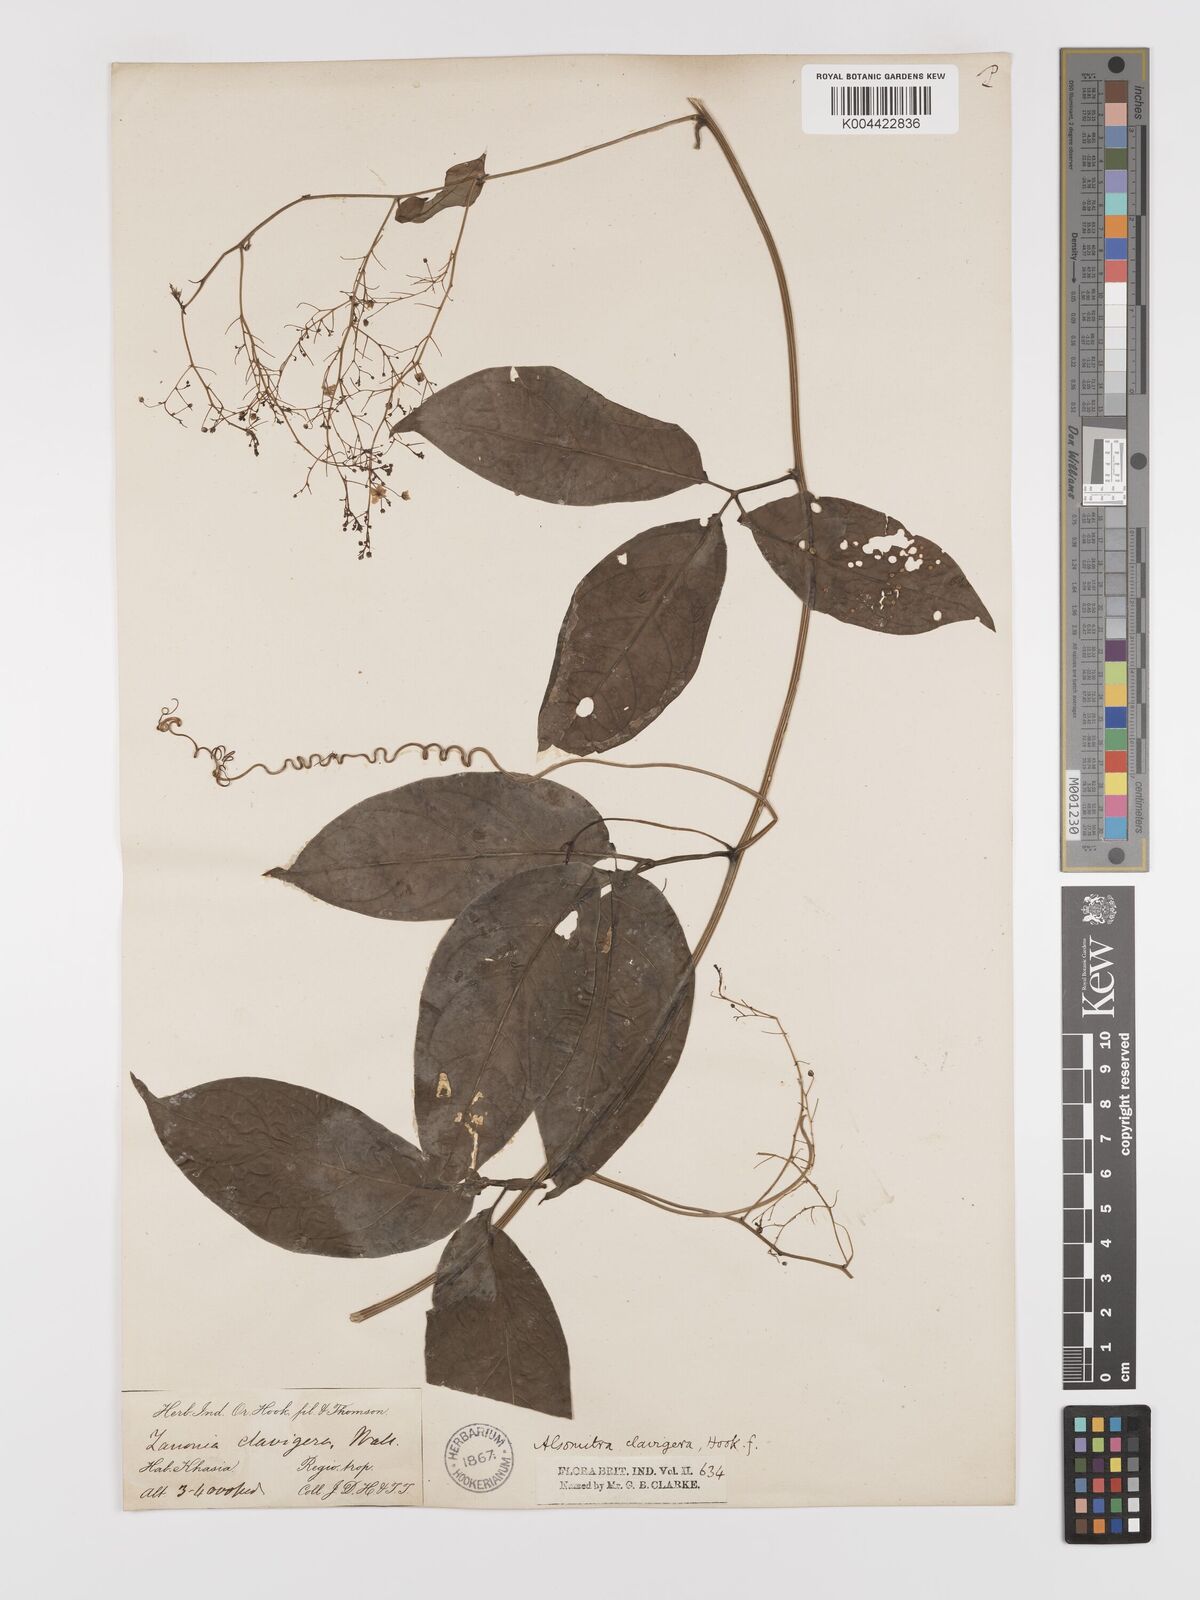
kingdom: Plantae
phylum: Tracheophyta
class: Magnoliopsida
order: Cucurbitales
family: Cucurbitaceae
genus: Neoalsomitra
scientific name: Neoalsomitra
